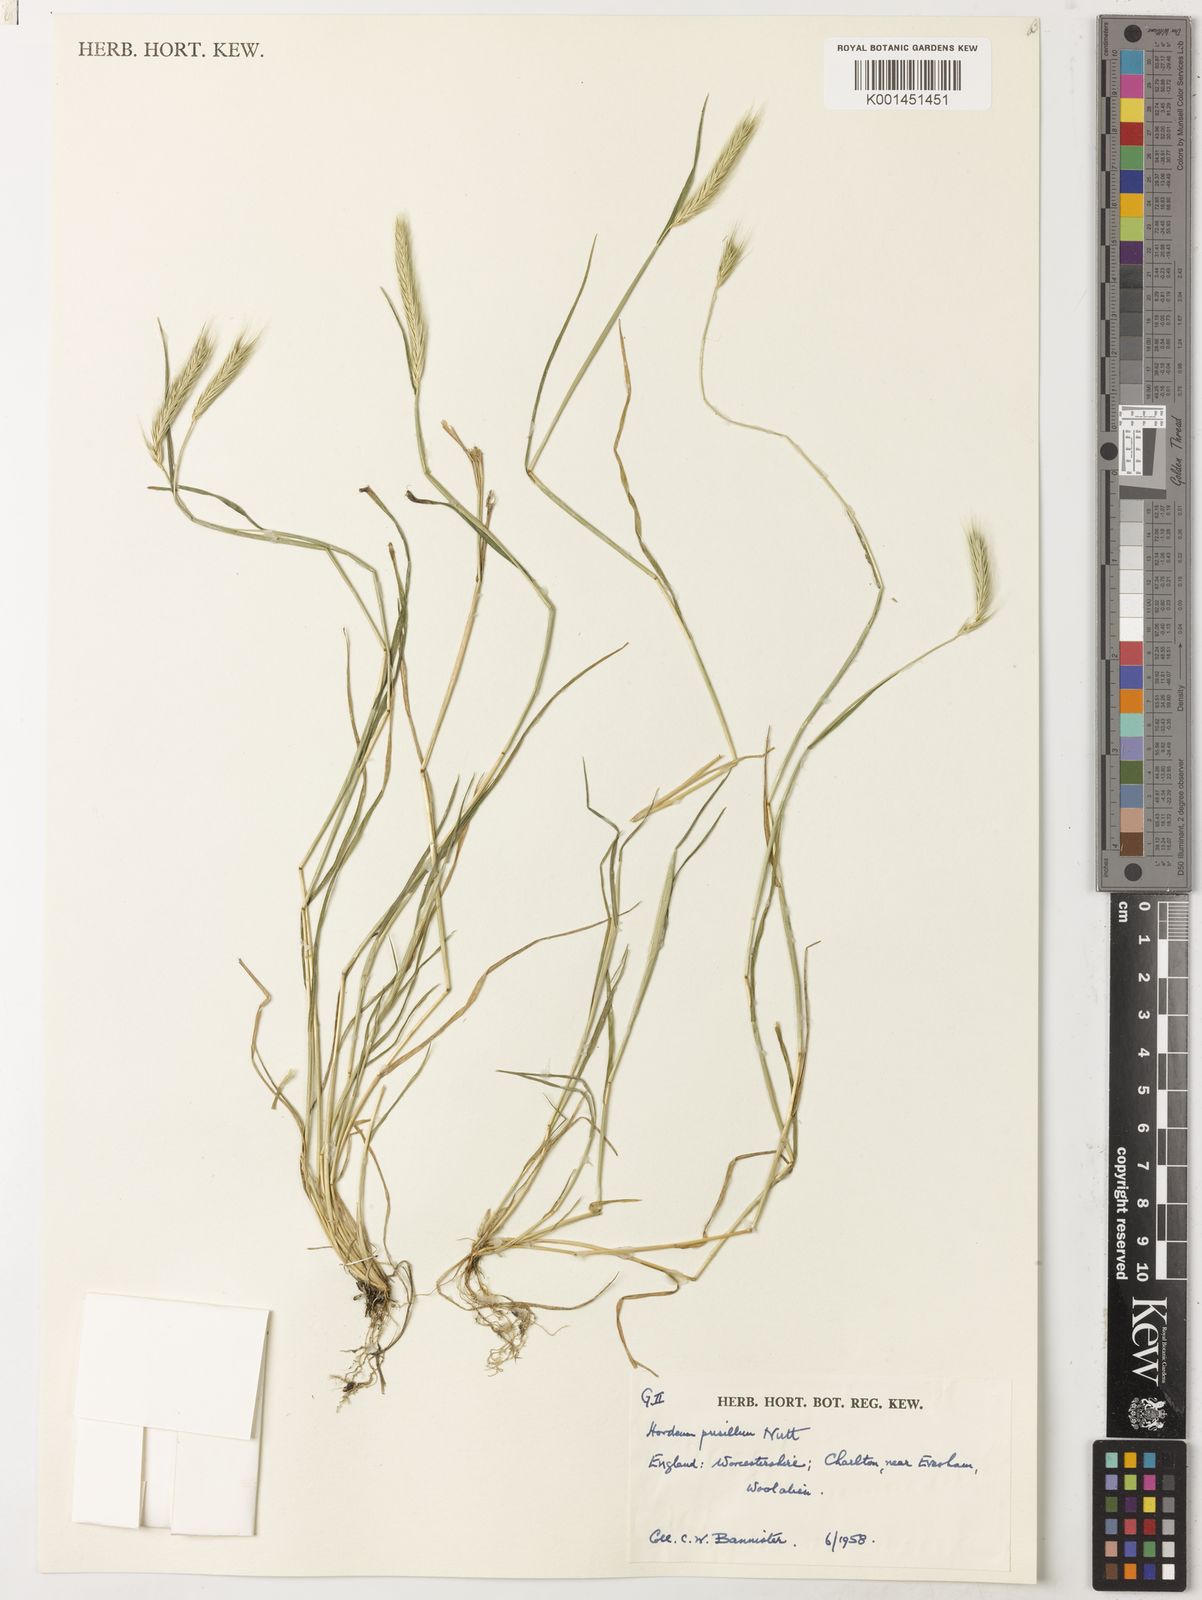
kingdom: Plantae
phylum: Tracheophyta
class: Liliopsida
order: Poales
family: Poaceae
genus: Hordeum
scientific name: Hordeum pusillum
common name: Little barley
